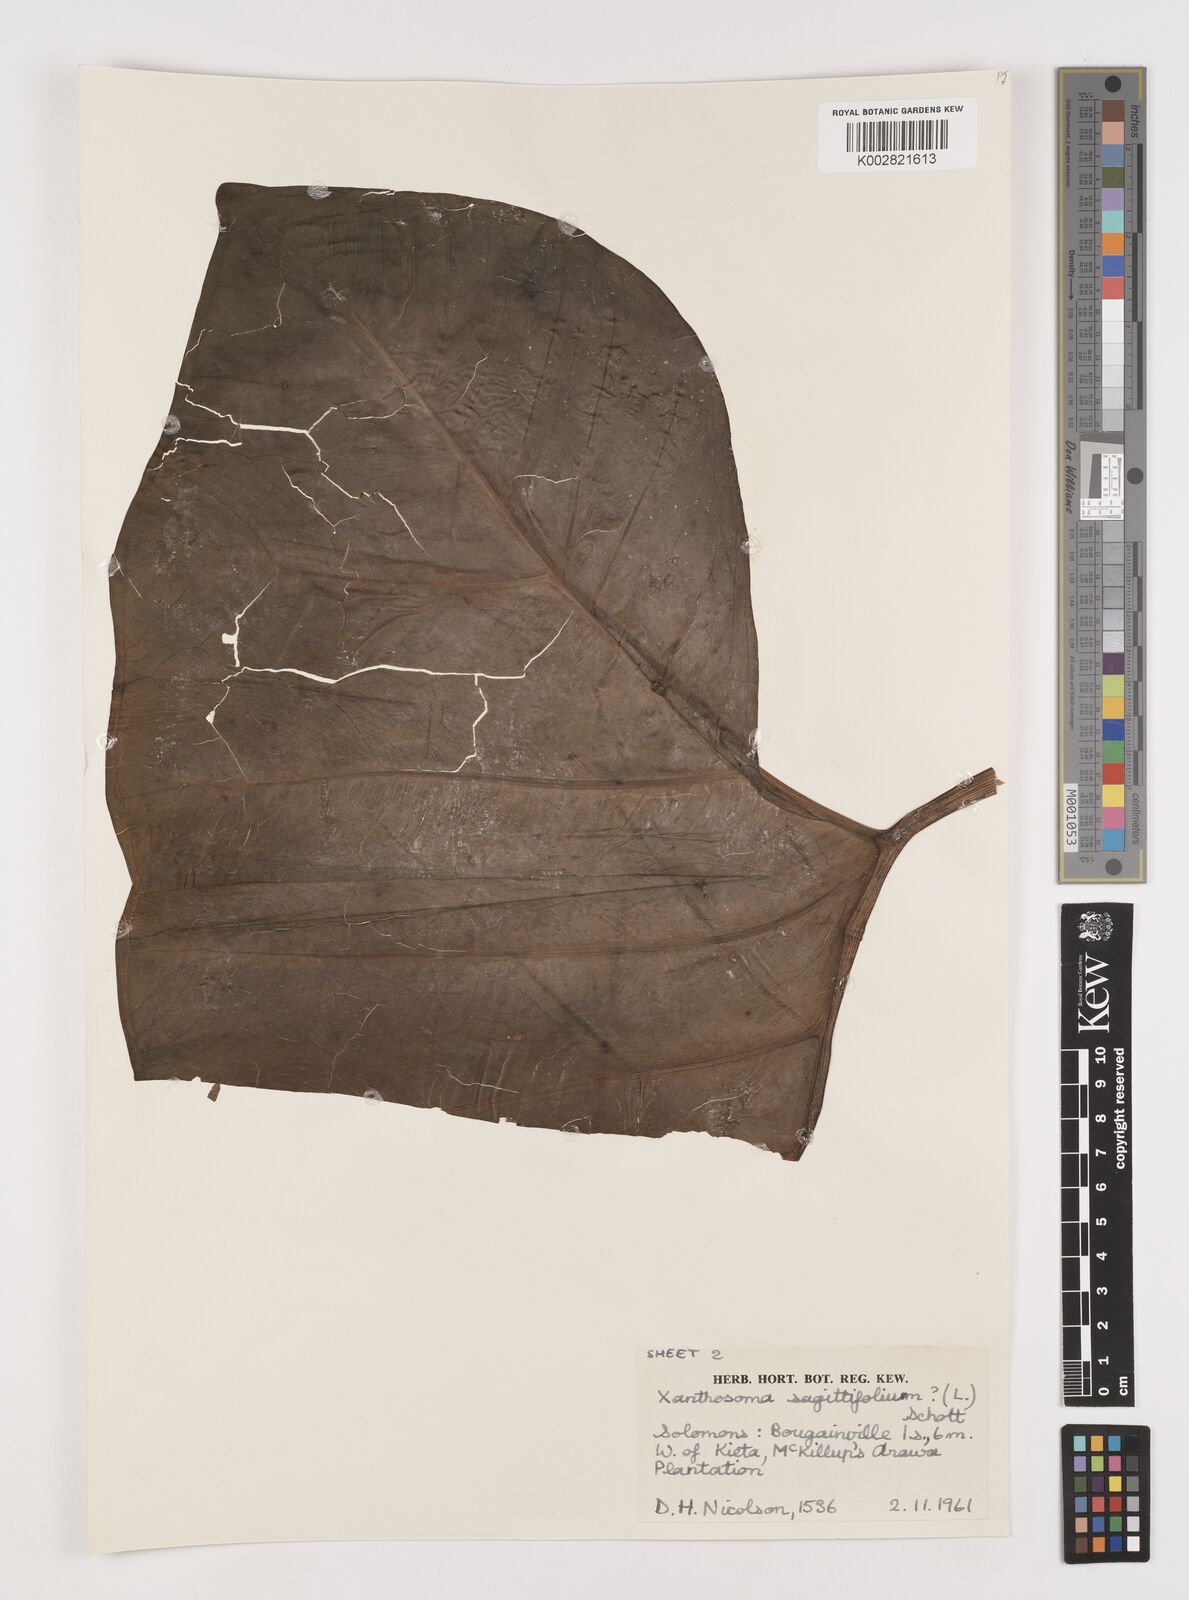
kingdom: Plantae
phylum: Tracheophyta
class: Liliopsida
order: Alismatales
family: Araceae
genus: Xanthosoma
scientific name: Xanthosoma sagittifolium
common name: Arrowleaf elephant's ear
